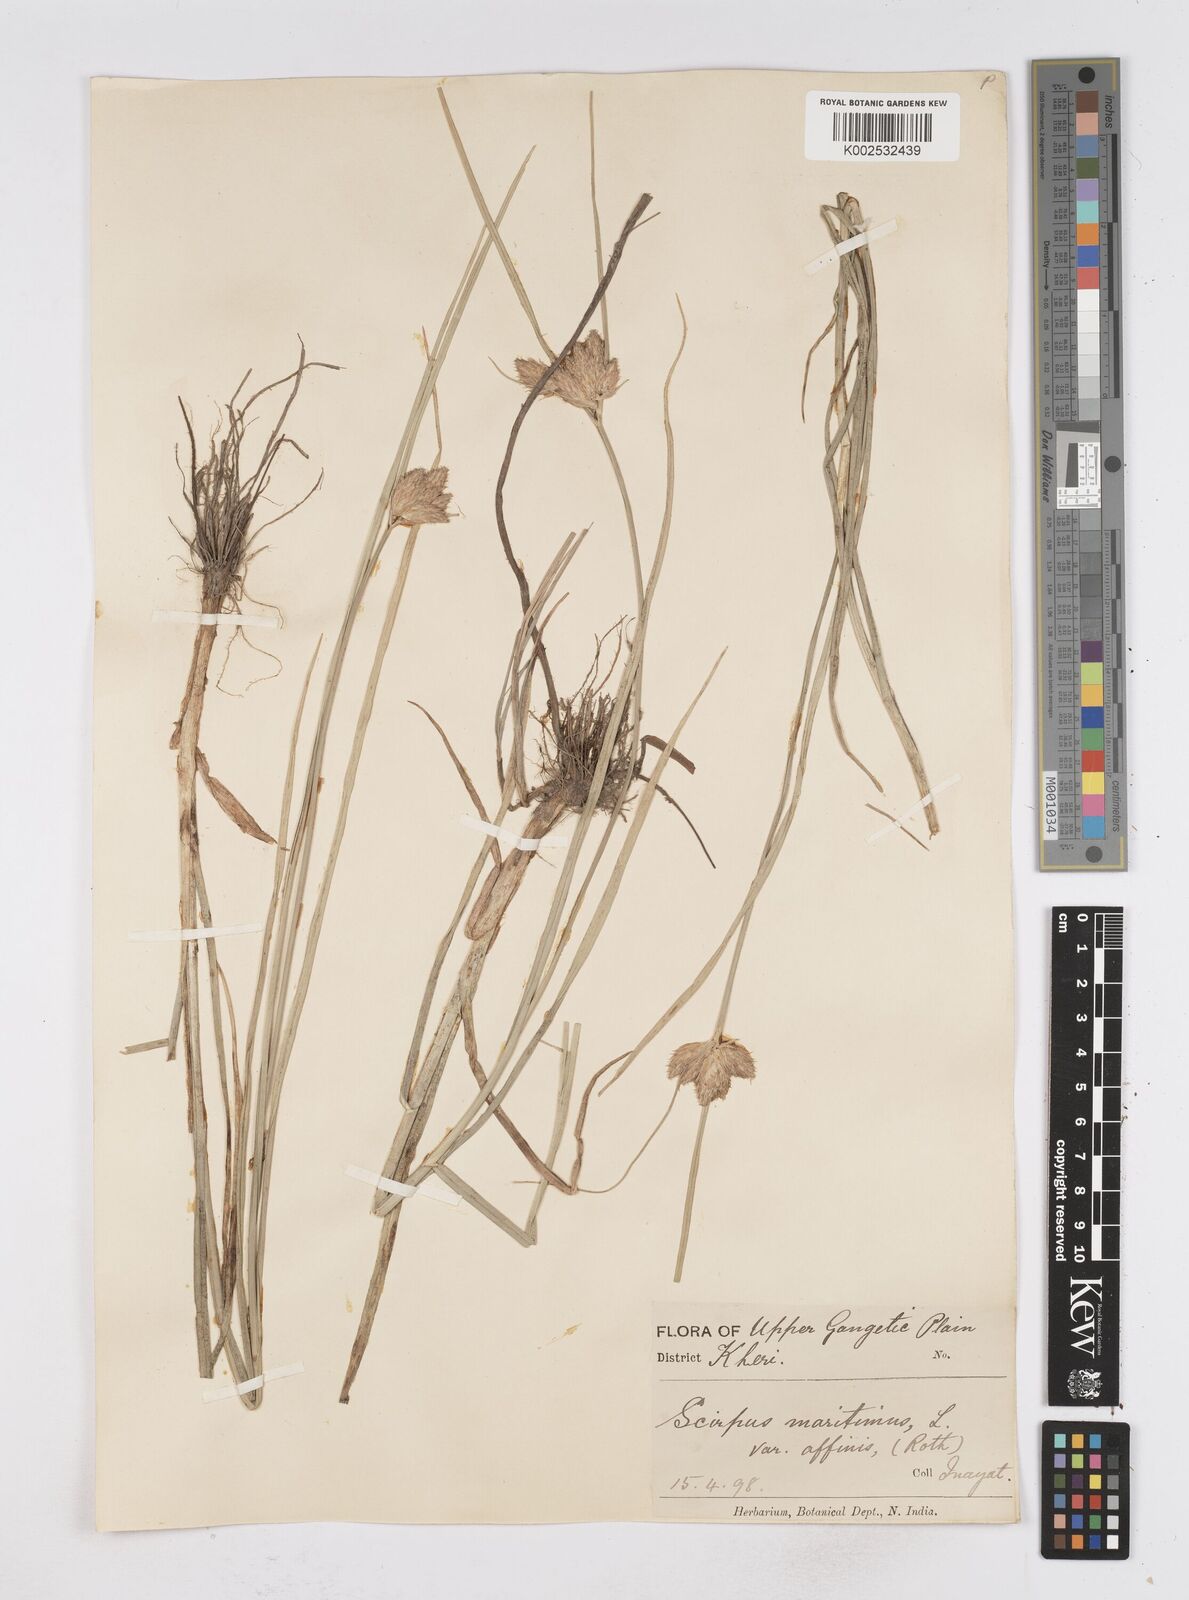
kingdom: Plantae
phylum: Tracheophyta
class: Liliopsida
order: Poales
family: Cyperaceae
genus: Bolboschoenus
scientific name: Bolboschoenus maritimus
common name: Sea club-rush
